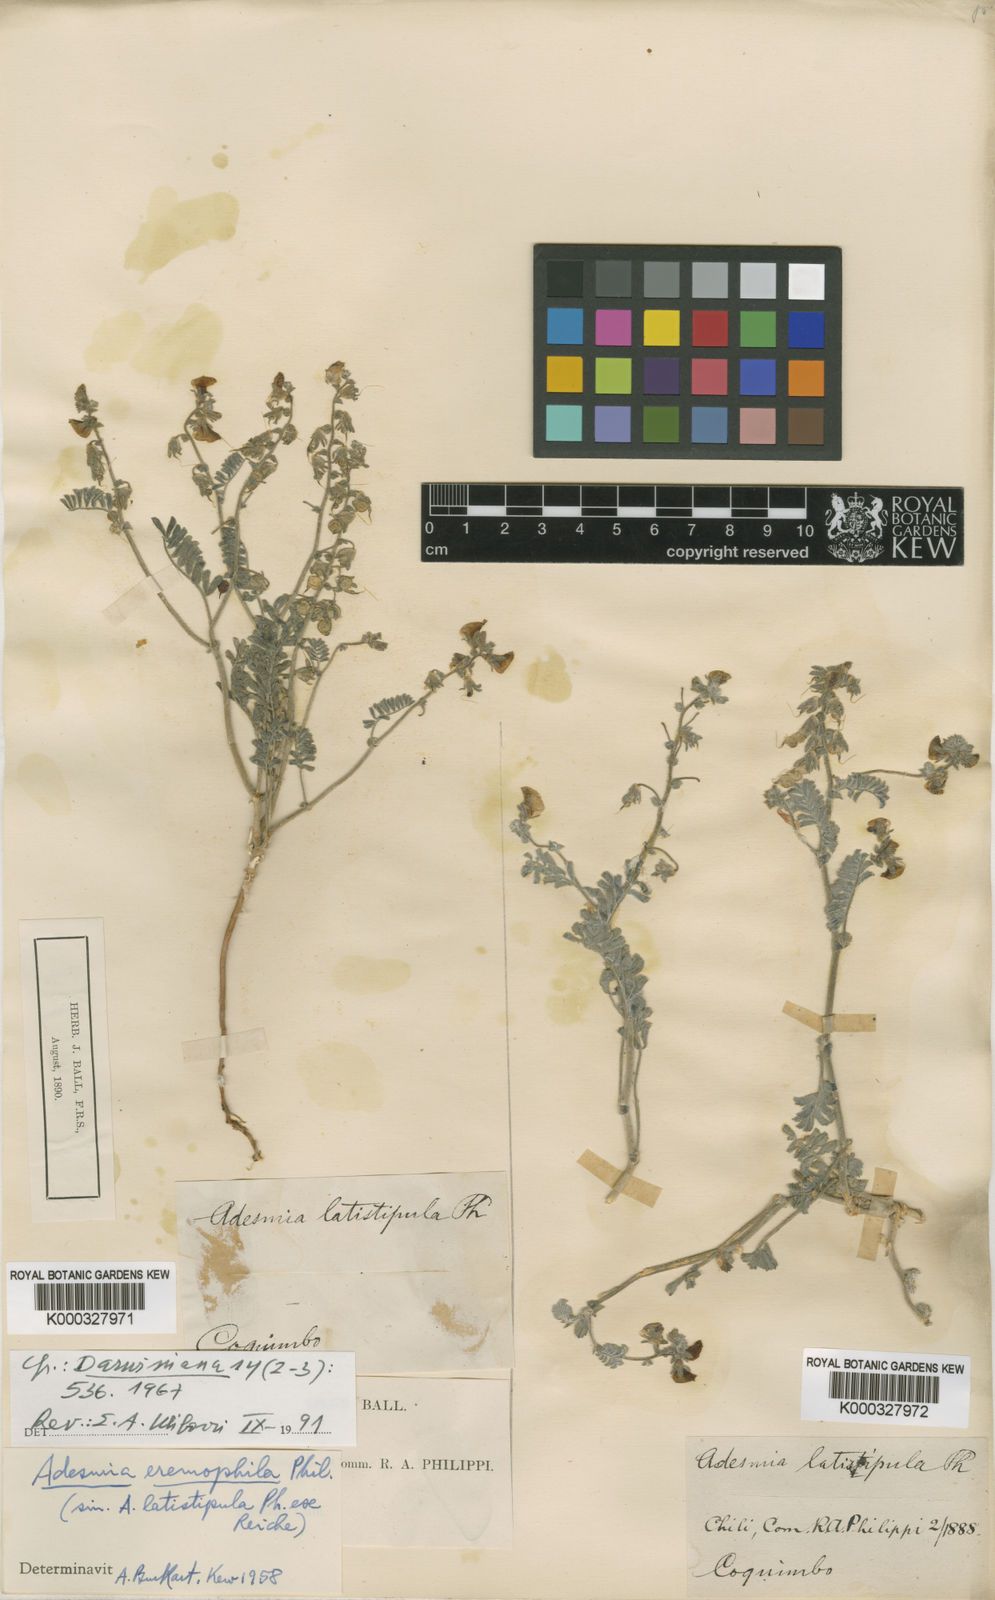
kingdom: Plantae
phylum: Tracheophyta
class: Magnoliopsida
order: Fabales
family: Fabaceae
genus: Adesmia
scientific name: Adesmia
